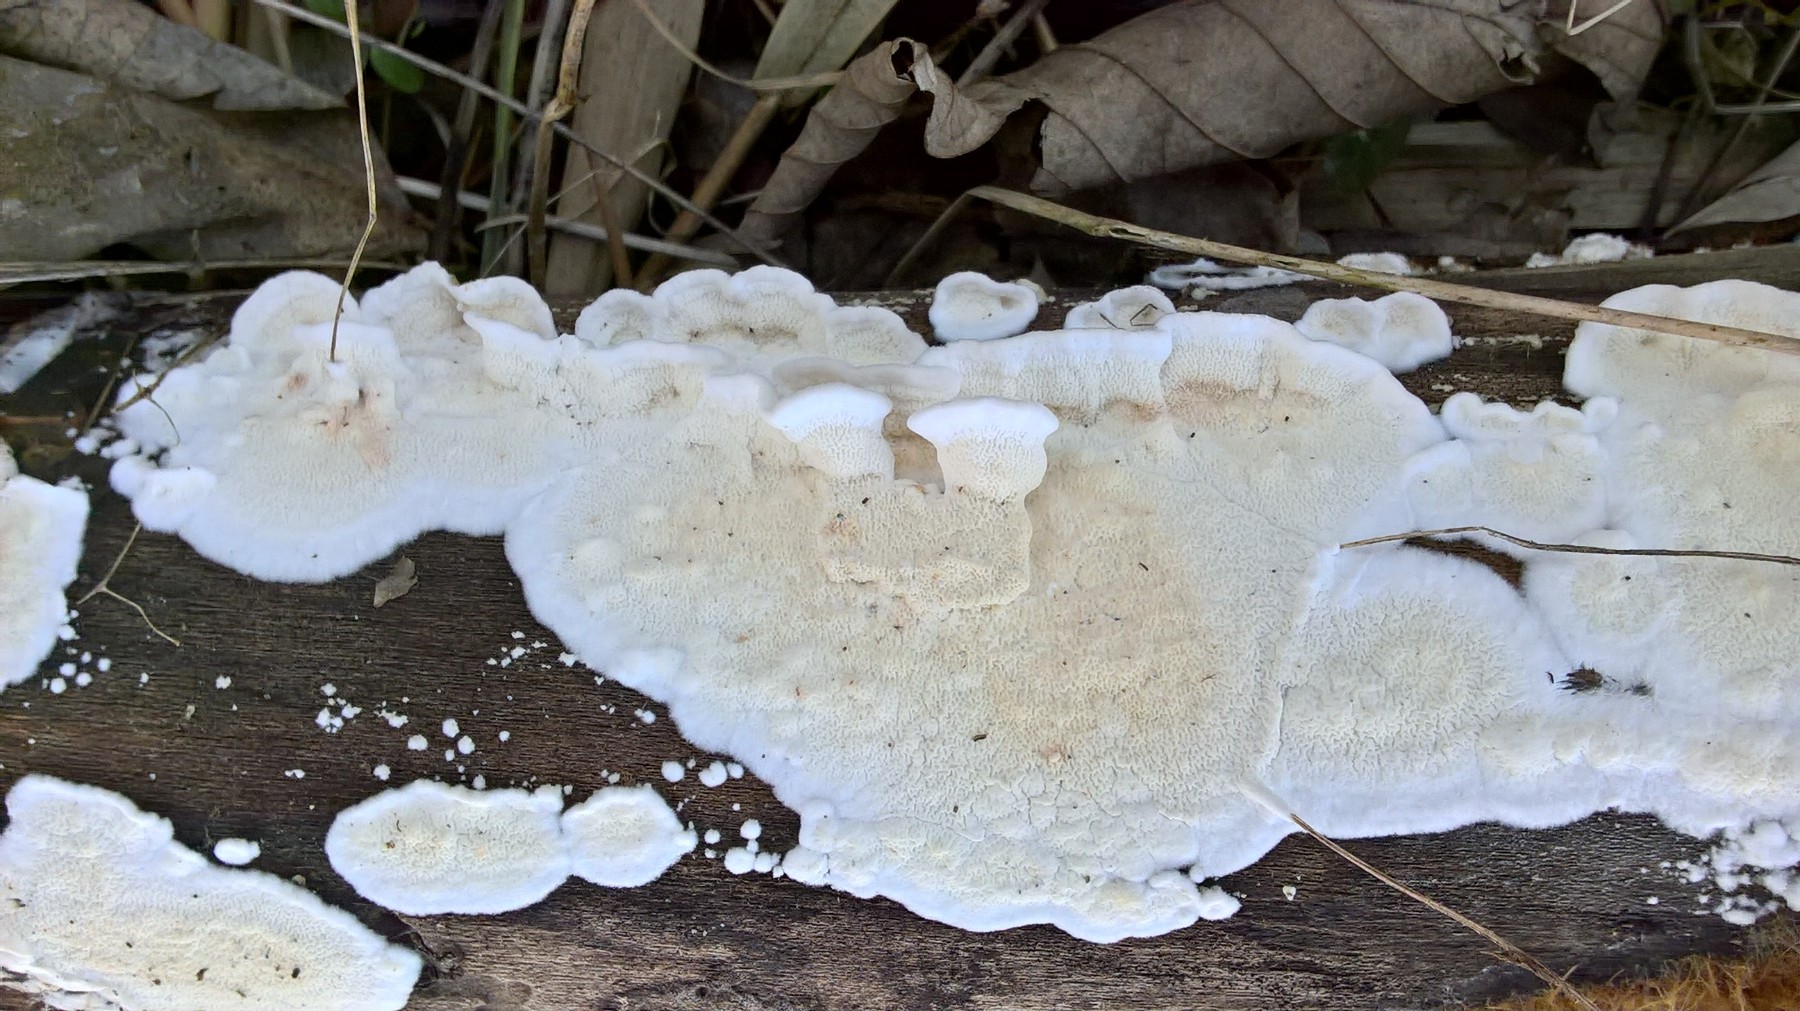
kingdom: Fungi
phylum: Basidiomycota
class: Agaricomycetes
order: Polyporales
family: Irpicaceae
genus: Byssomerulius
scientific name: Byssomerulius corium
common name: læder-åresvamp
